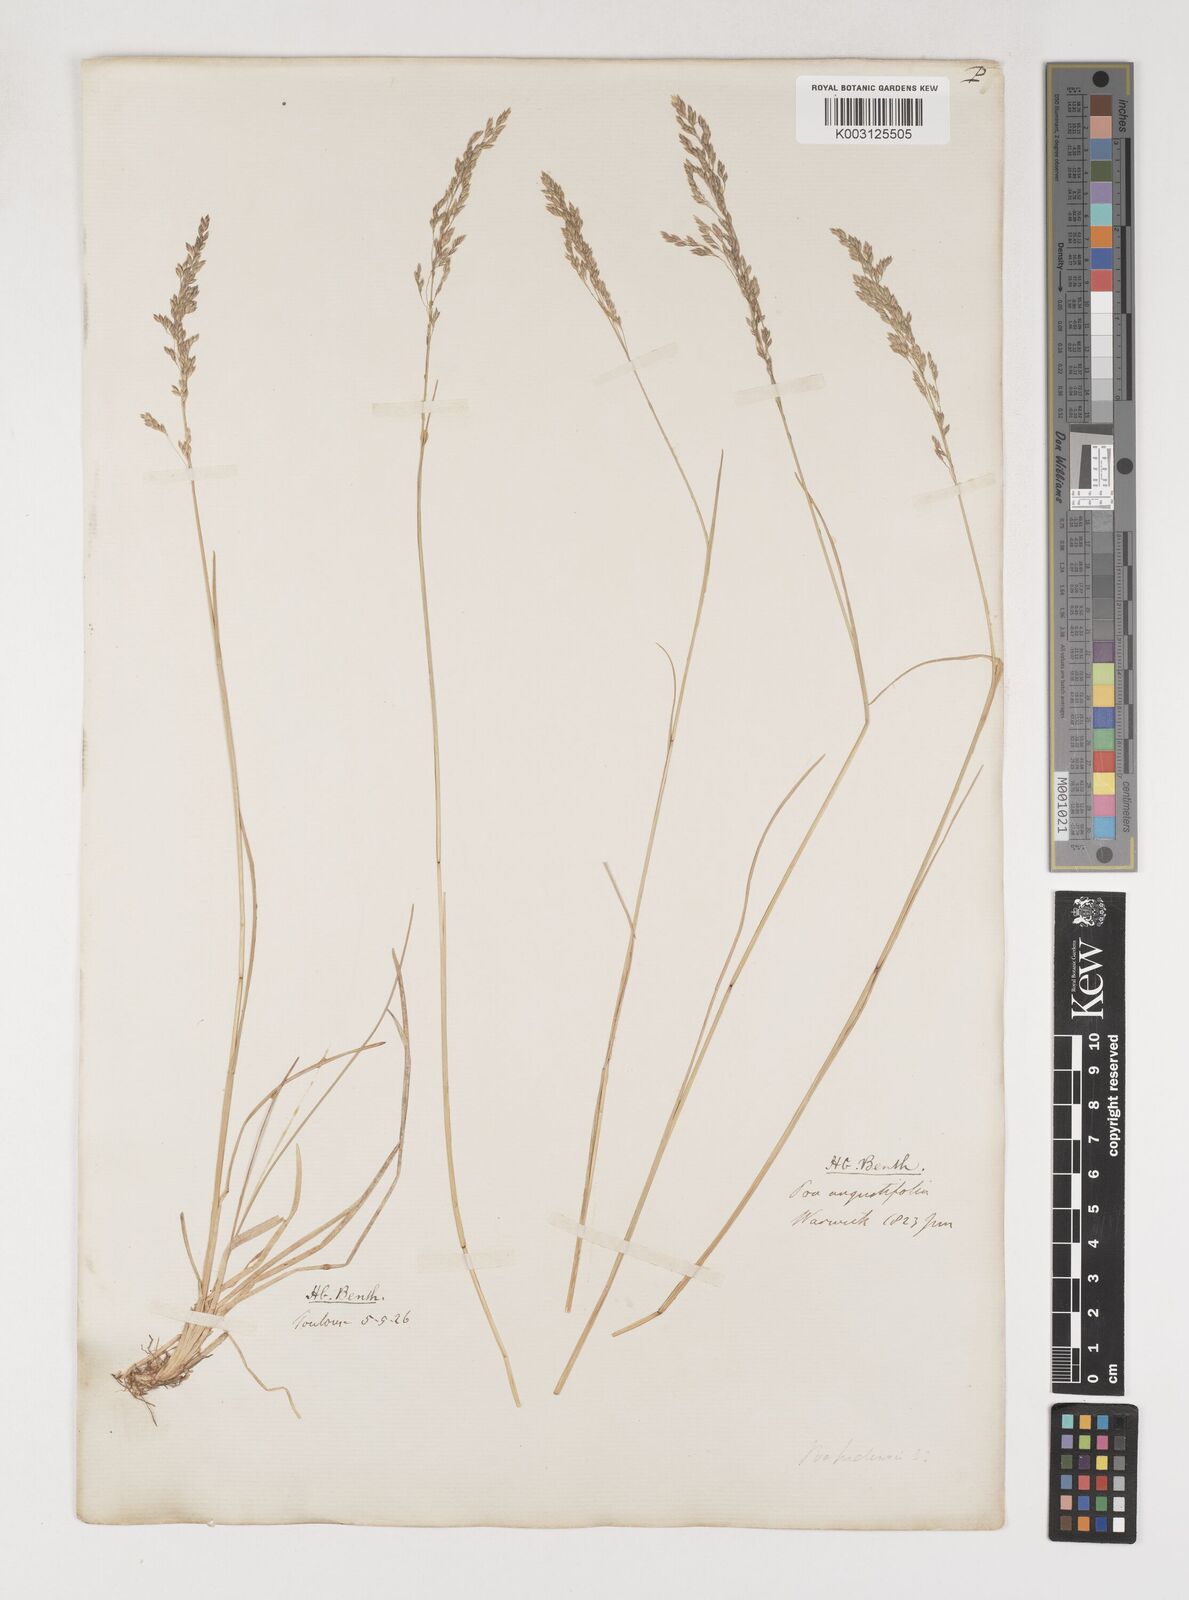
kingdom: Plantae
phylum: Tracheophyta
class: Liliopsida
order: Poales
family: Poaceae
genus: Poa
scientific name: Poa angustifolia
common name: Narrow-leaved meadow-grass
